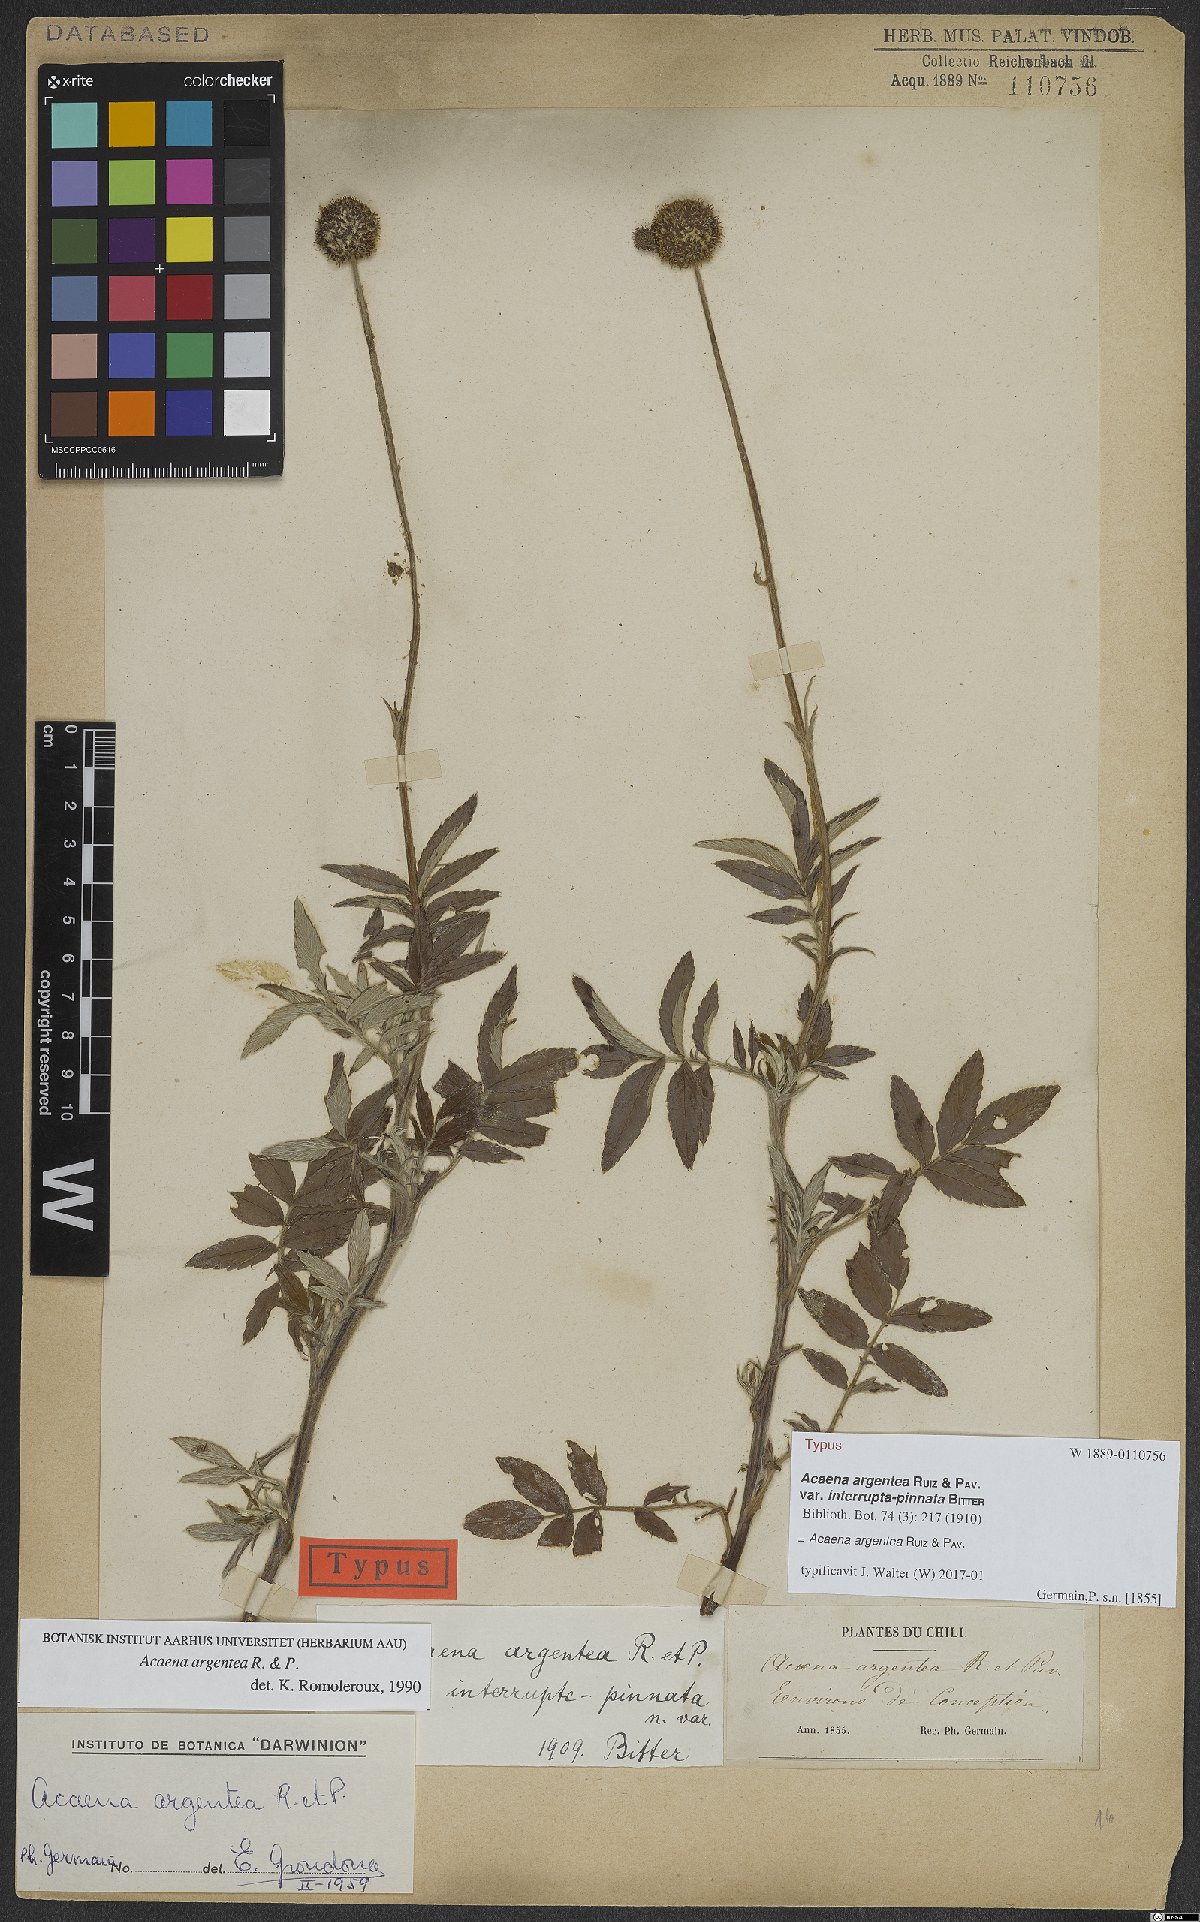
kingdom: Plantae
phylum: Tracheophyta
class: Magnoliopsida
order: Rosales
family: Rosaceae
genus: Acaena
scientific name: Acaena argentea
